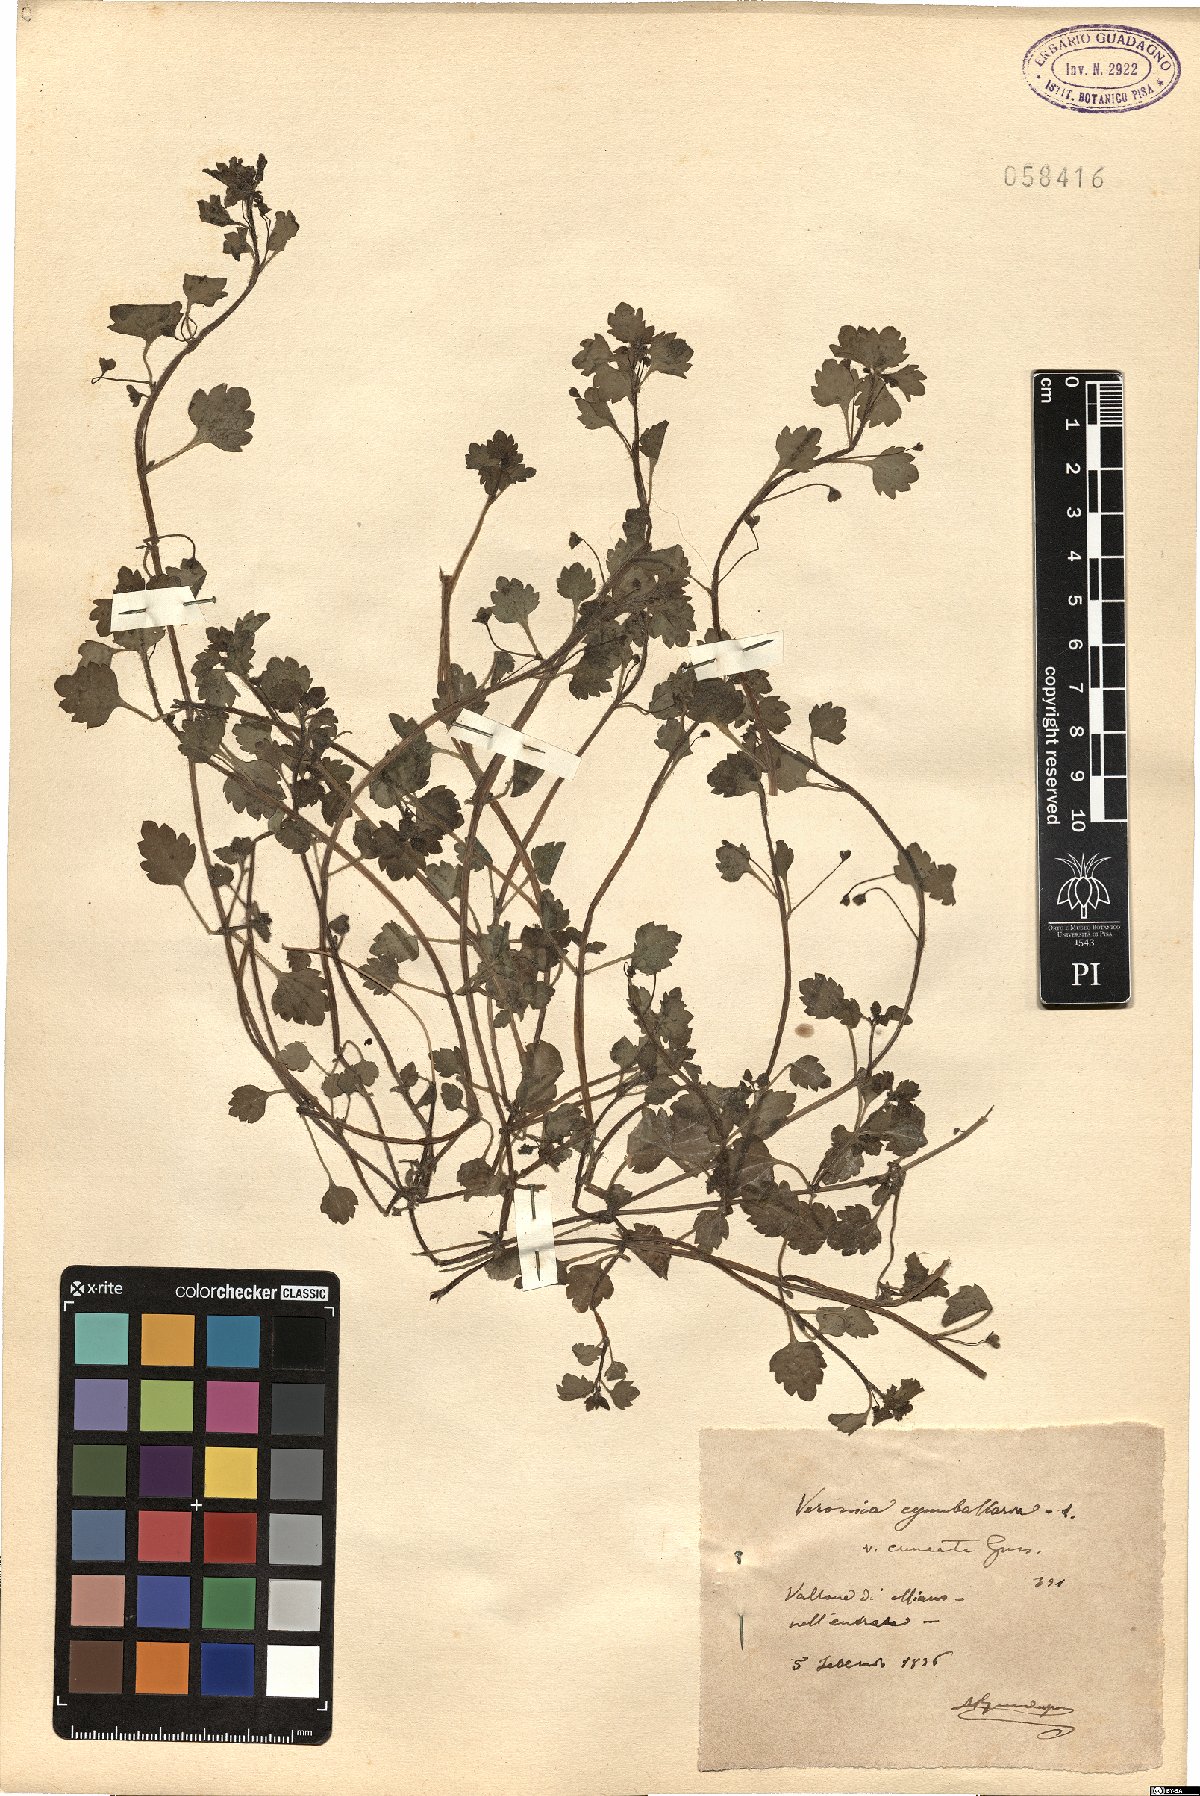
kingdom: Plantae
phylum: Tracheophyta
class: Magnoliopsida
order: Lamiales
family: Plantaginaceae
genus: Veronica
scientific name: Veronica cymbalaria
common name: Pale speedwell
